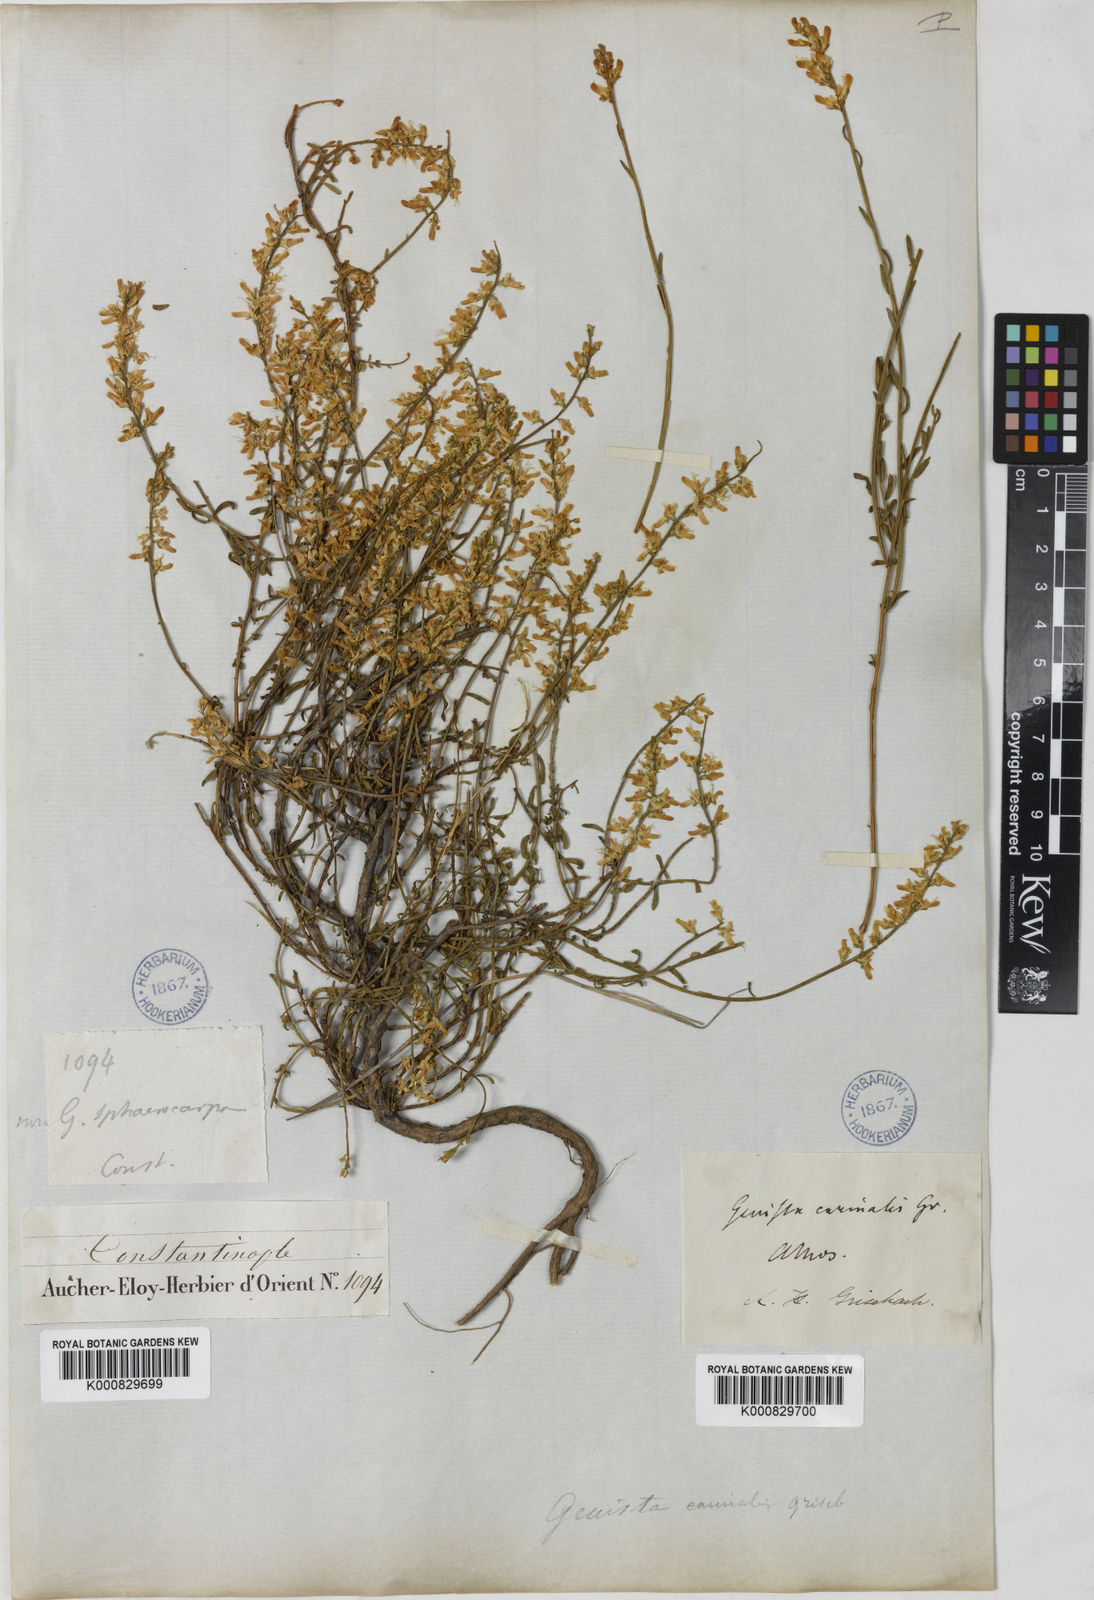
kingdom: Plantae
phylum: Tracheophyta
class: Magnoliopsida
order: Fabales
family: Fabaceae
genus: Genista
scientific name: Genista carinalis
